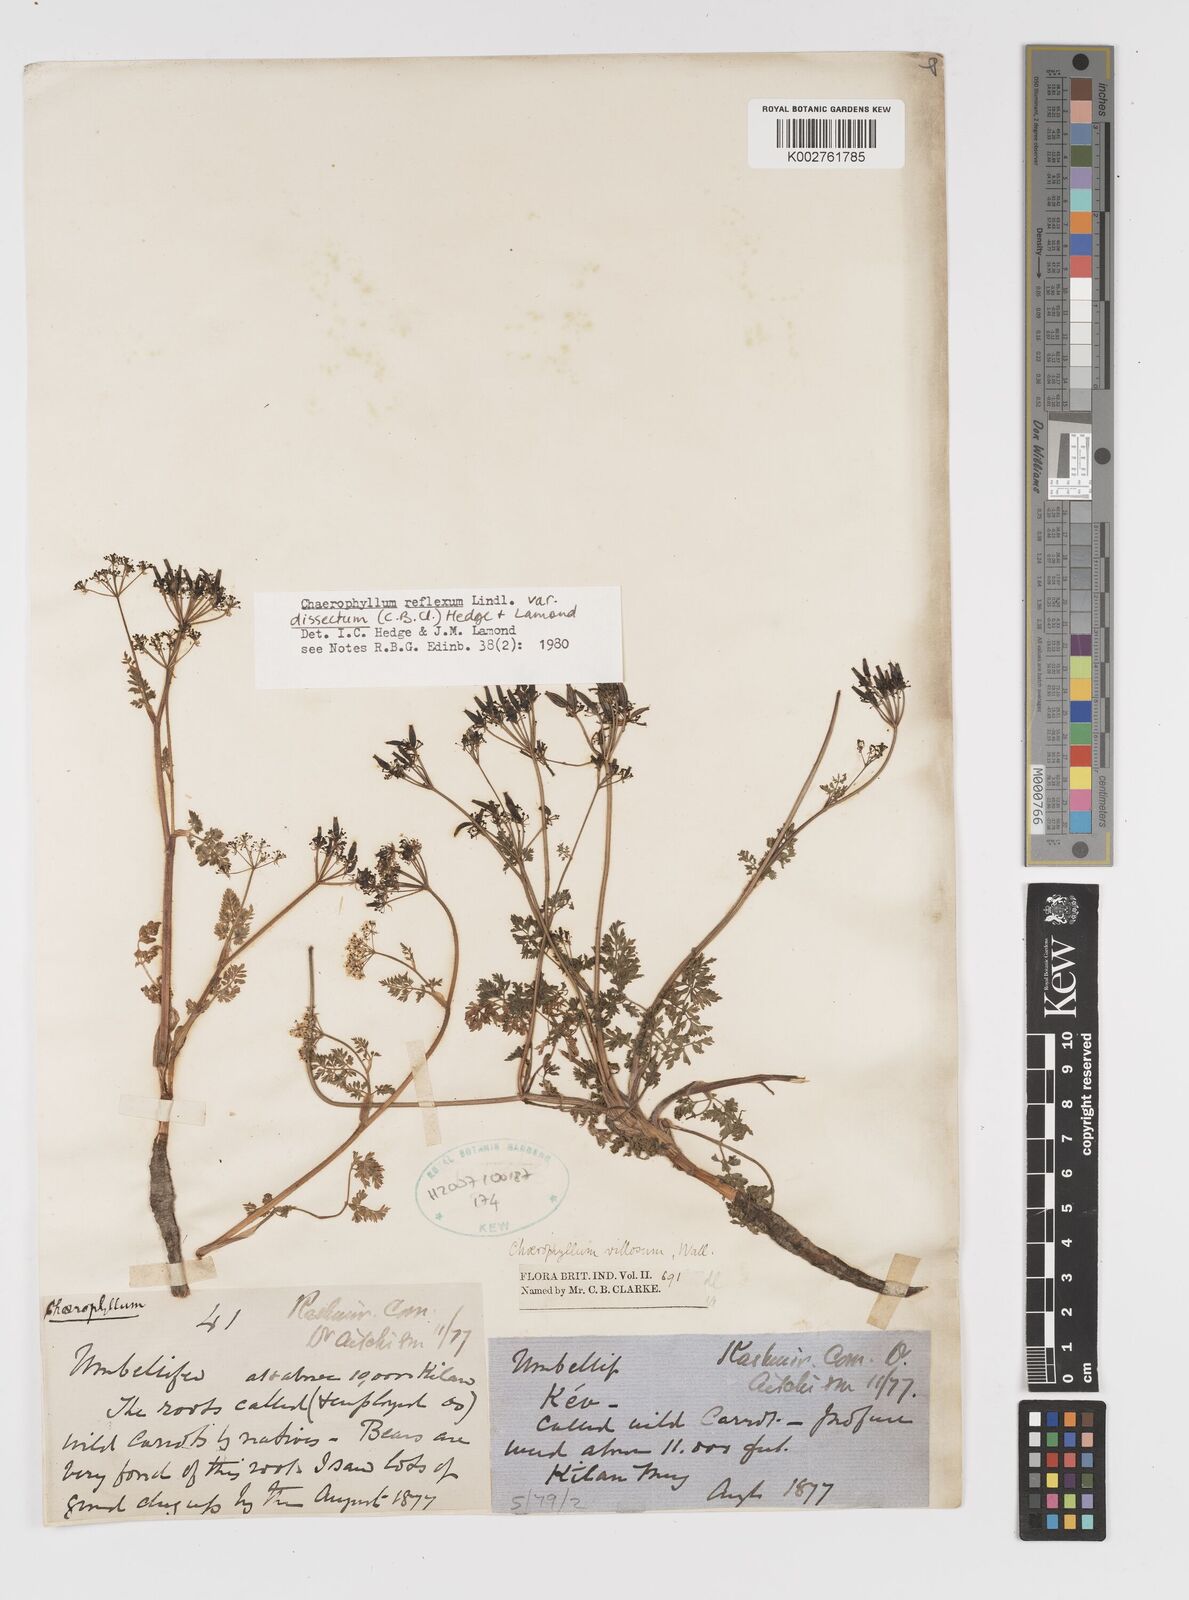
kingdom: Plantae
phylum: Tracheophyta
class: Magnoliopsida
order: Apiales
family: Apiaceae
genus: Chaerophyllum
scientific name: Chaerophyllum reflexum
